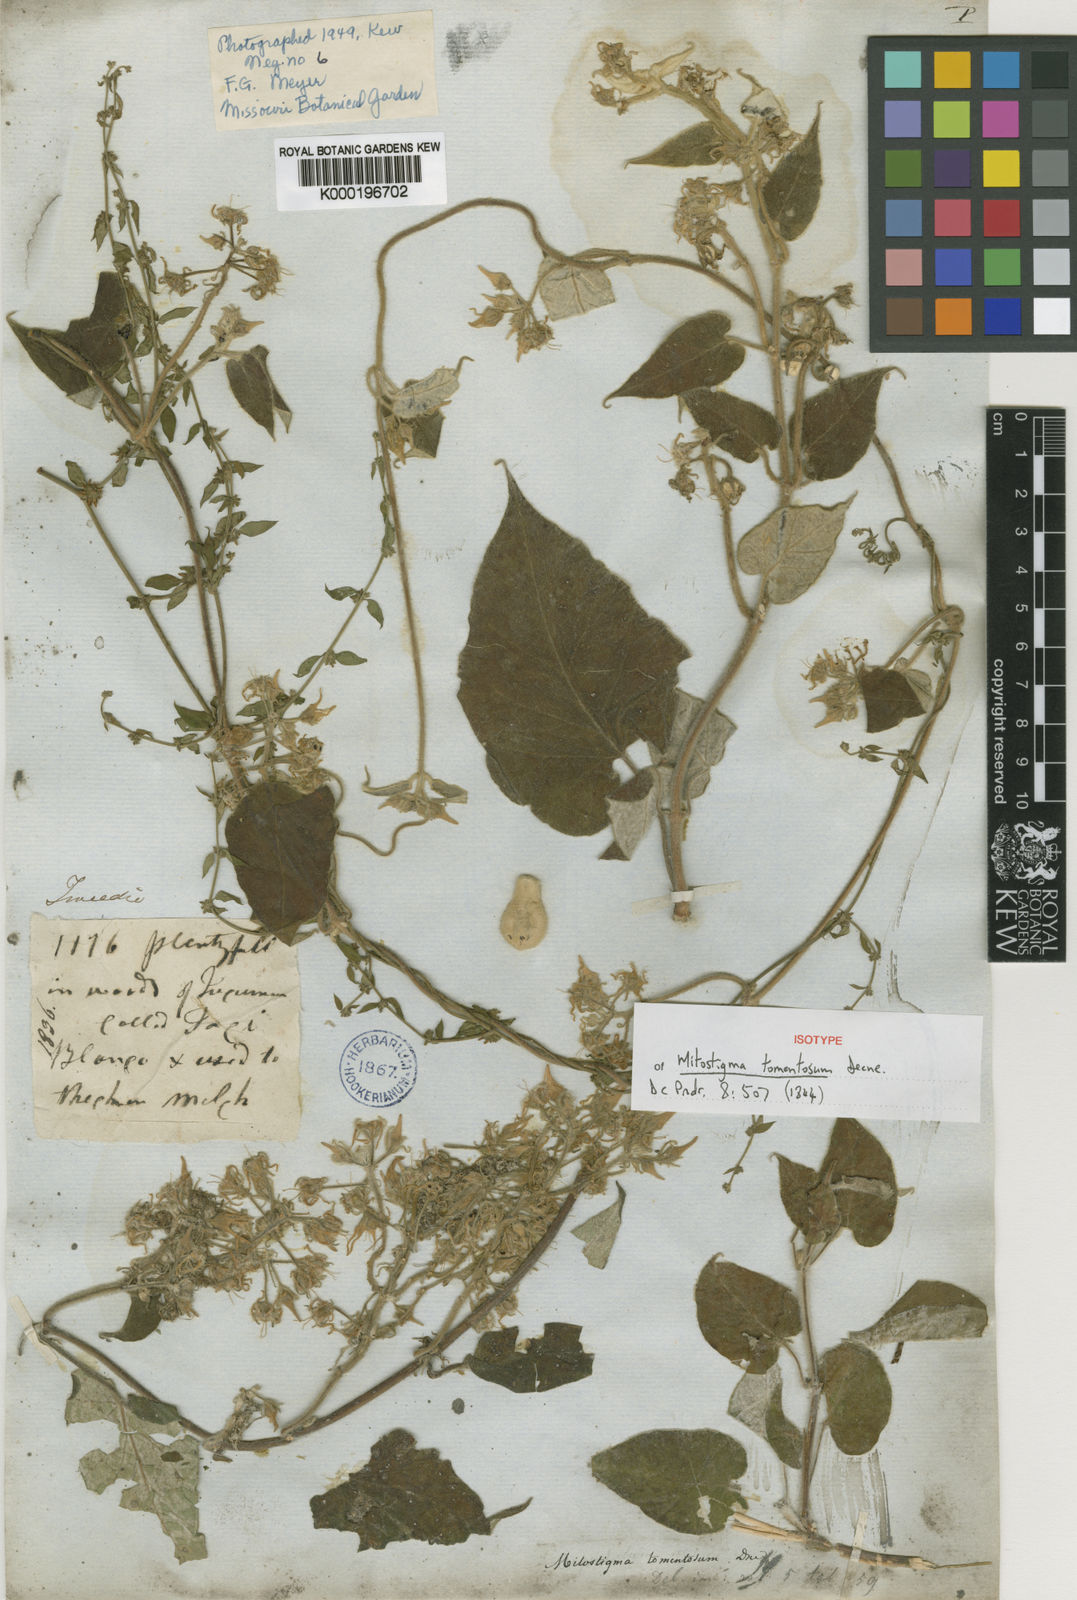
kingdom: Plantae
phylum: Tracheophyta
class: Magnoliopsida
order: Gentianales
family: Apocynaceae
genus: Philibertia
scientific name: Philibertia tomentosa
